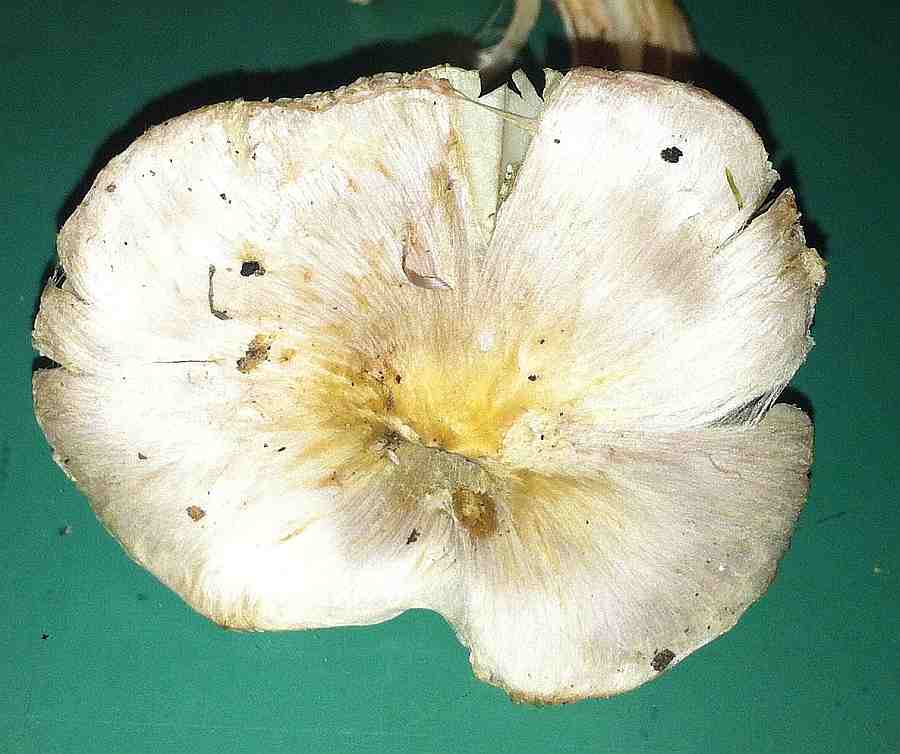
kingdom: Fungi
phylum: Basidiomycota
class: Agaricomycetes
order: Agaricales
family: Inocybaceae
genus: Inocybe
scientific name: Inocybe
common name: trævlhat
